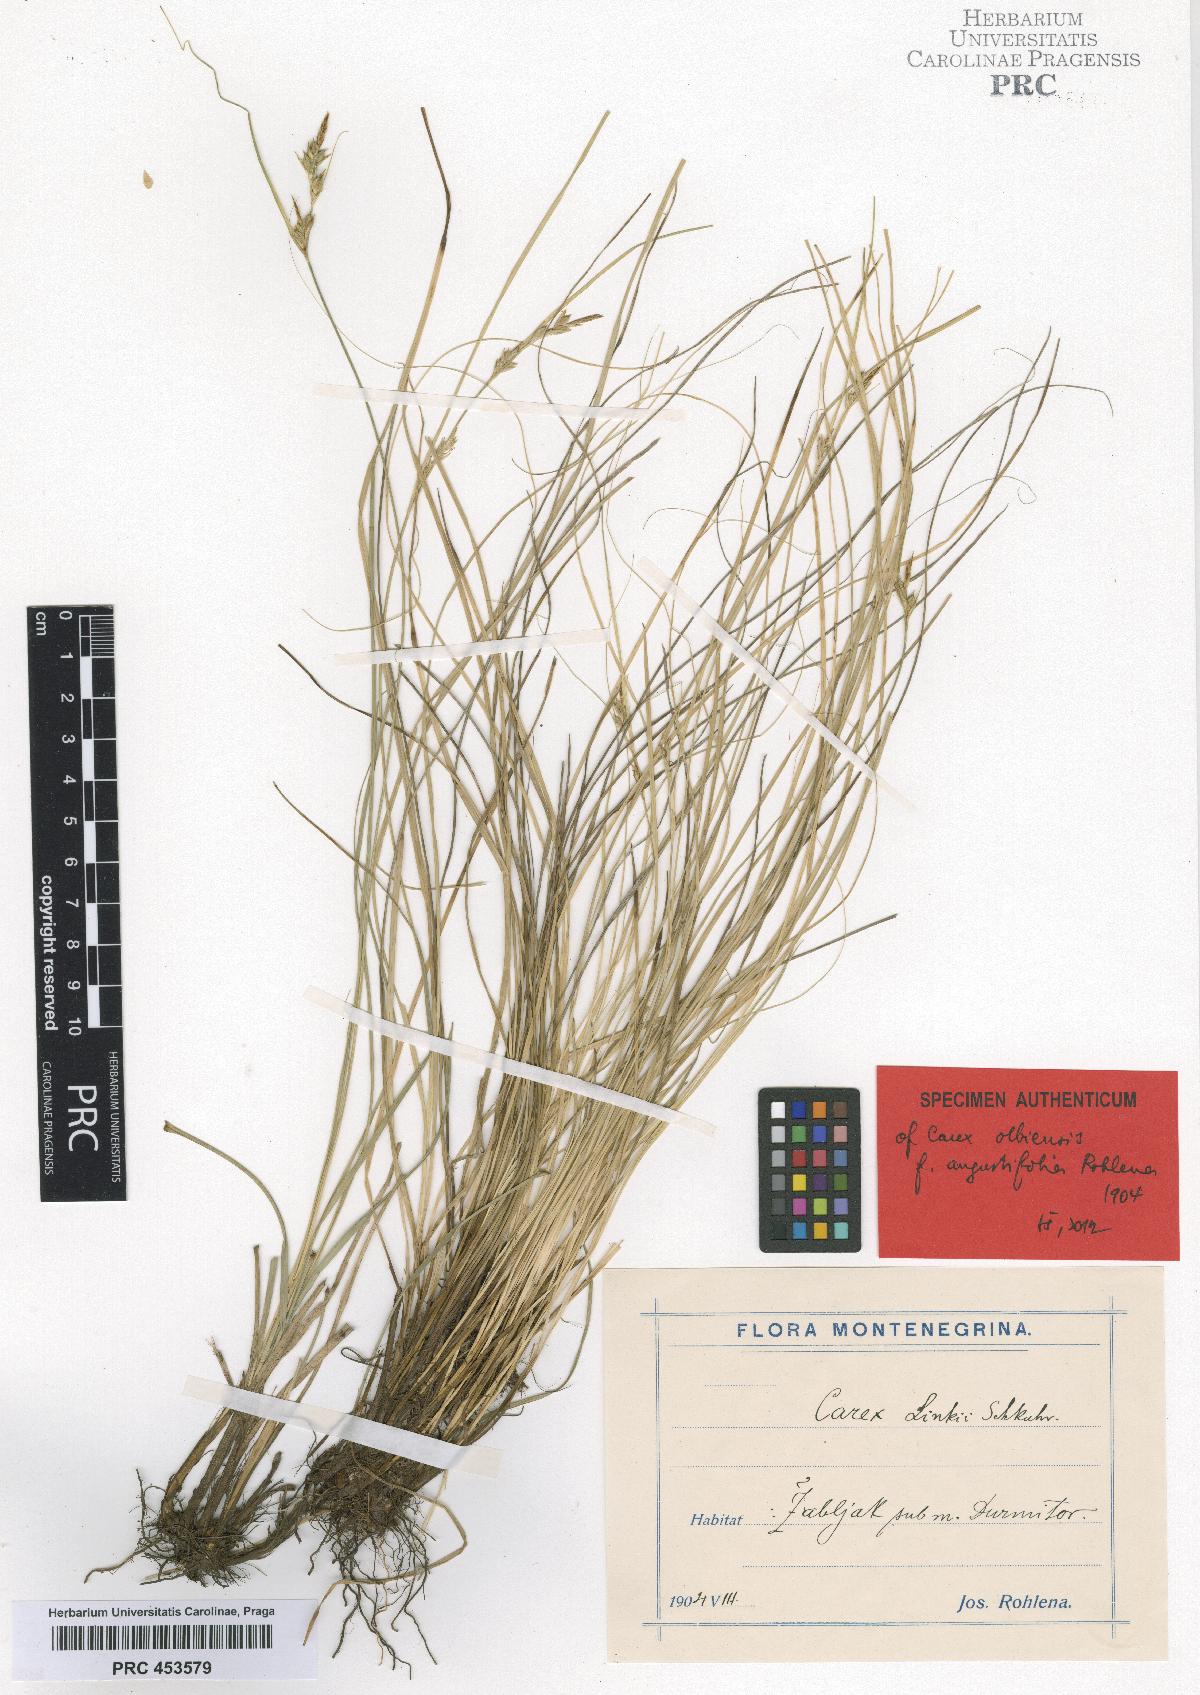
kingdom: Plantae
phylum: Tracheophyta
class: Liliopsida
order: Poales
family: Cyperaceae
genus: Carex
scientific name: Carex distachya
